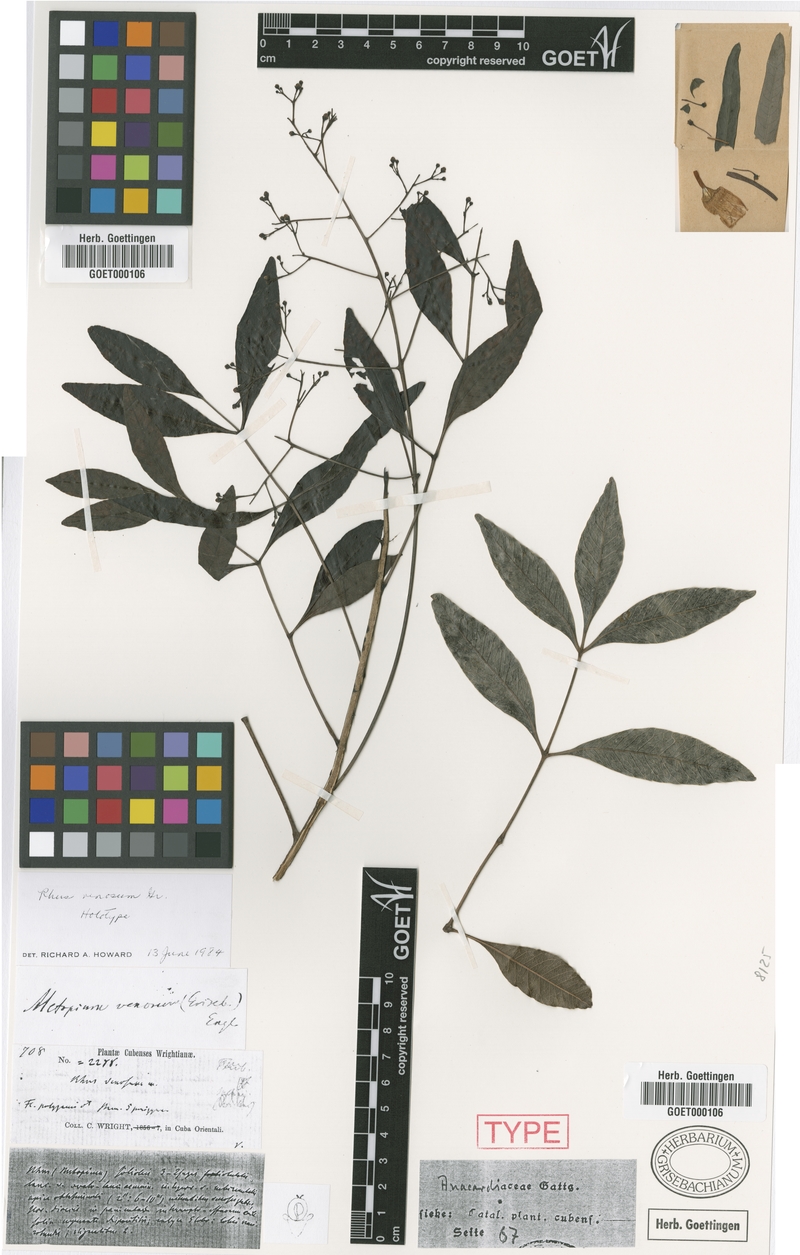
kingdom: Plantae
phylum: Tracheophyta
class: Magnoliopsida
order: Sapindales
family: Anacardiaceae
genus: Metopium
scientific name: Metopium venosum
